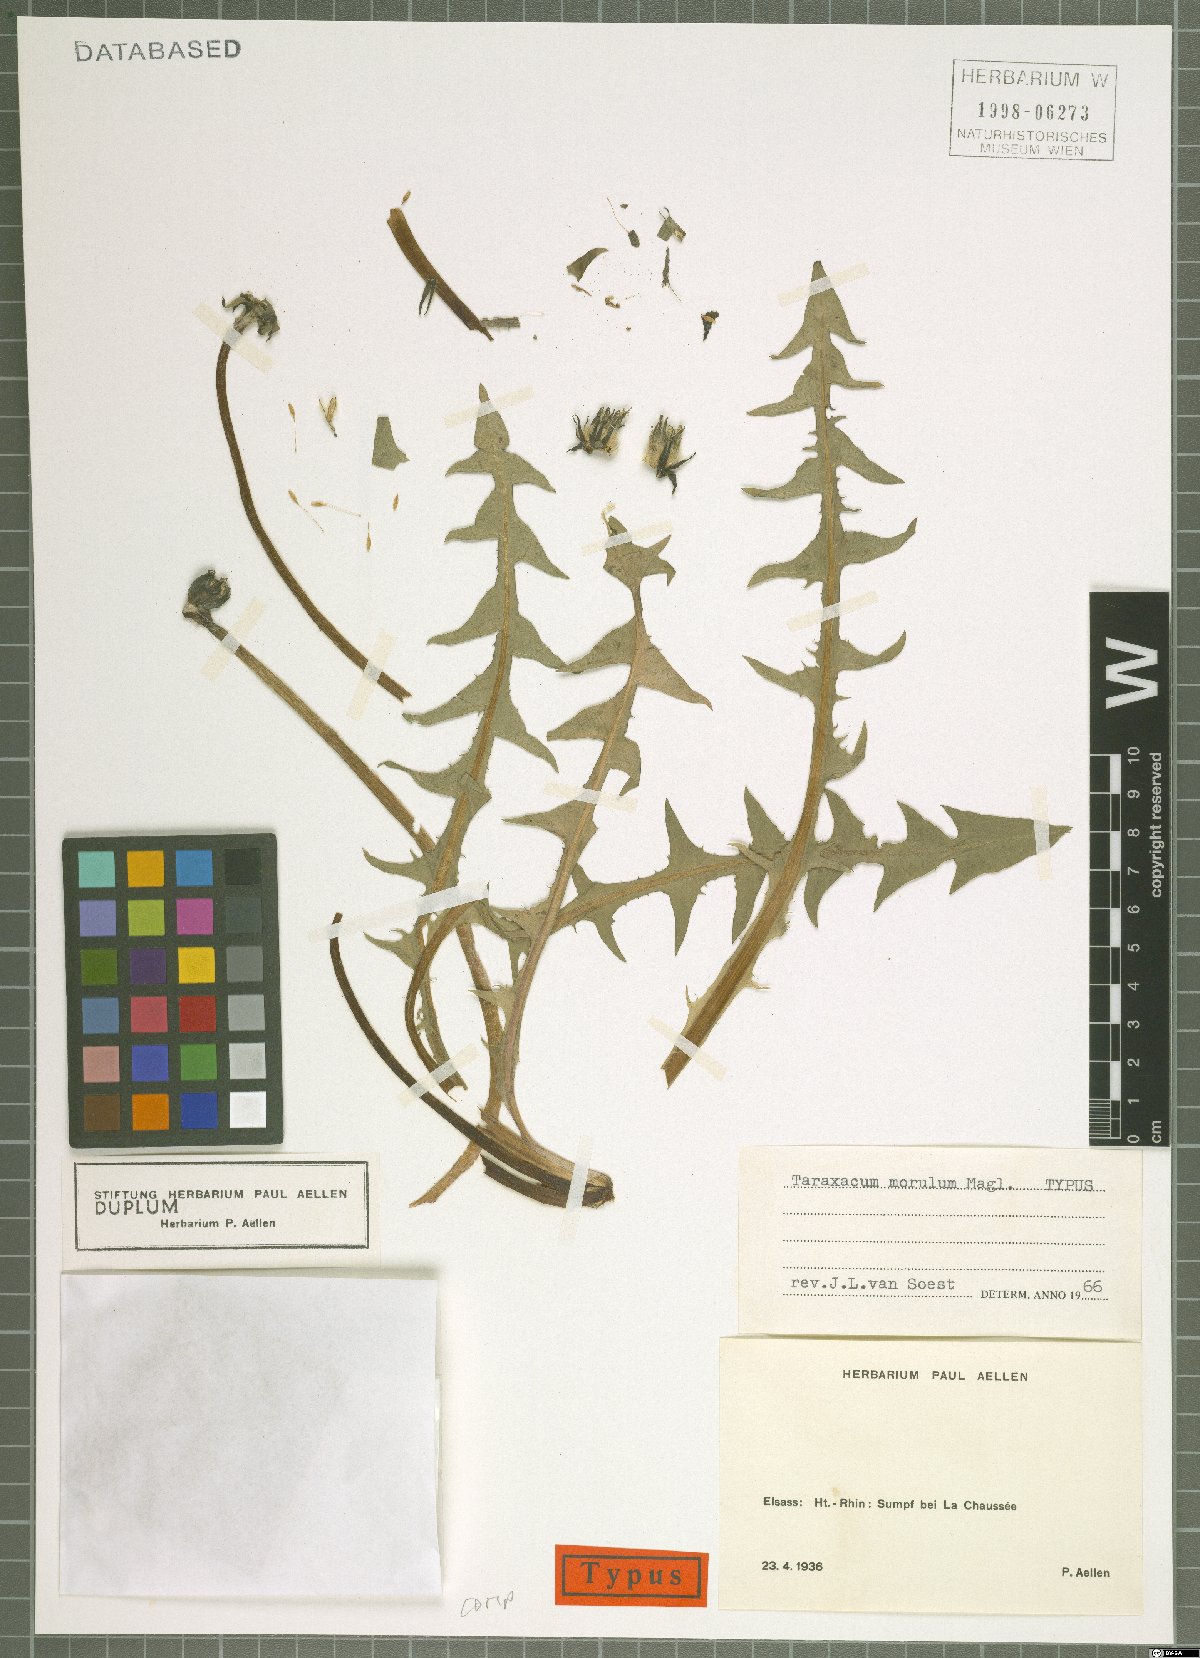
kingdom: Plantae
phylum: Tracheophyta
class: Magnoliopsida
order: Asterales
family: Asteraceae
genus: Taraxacum
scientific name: Taraxacum morulum
